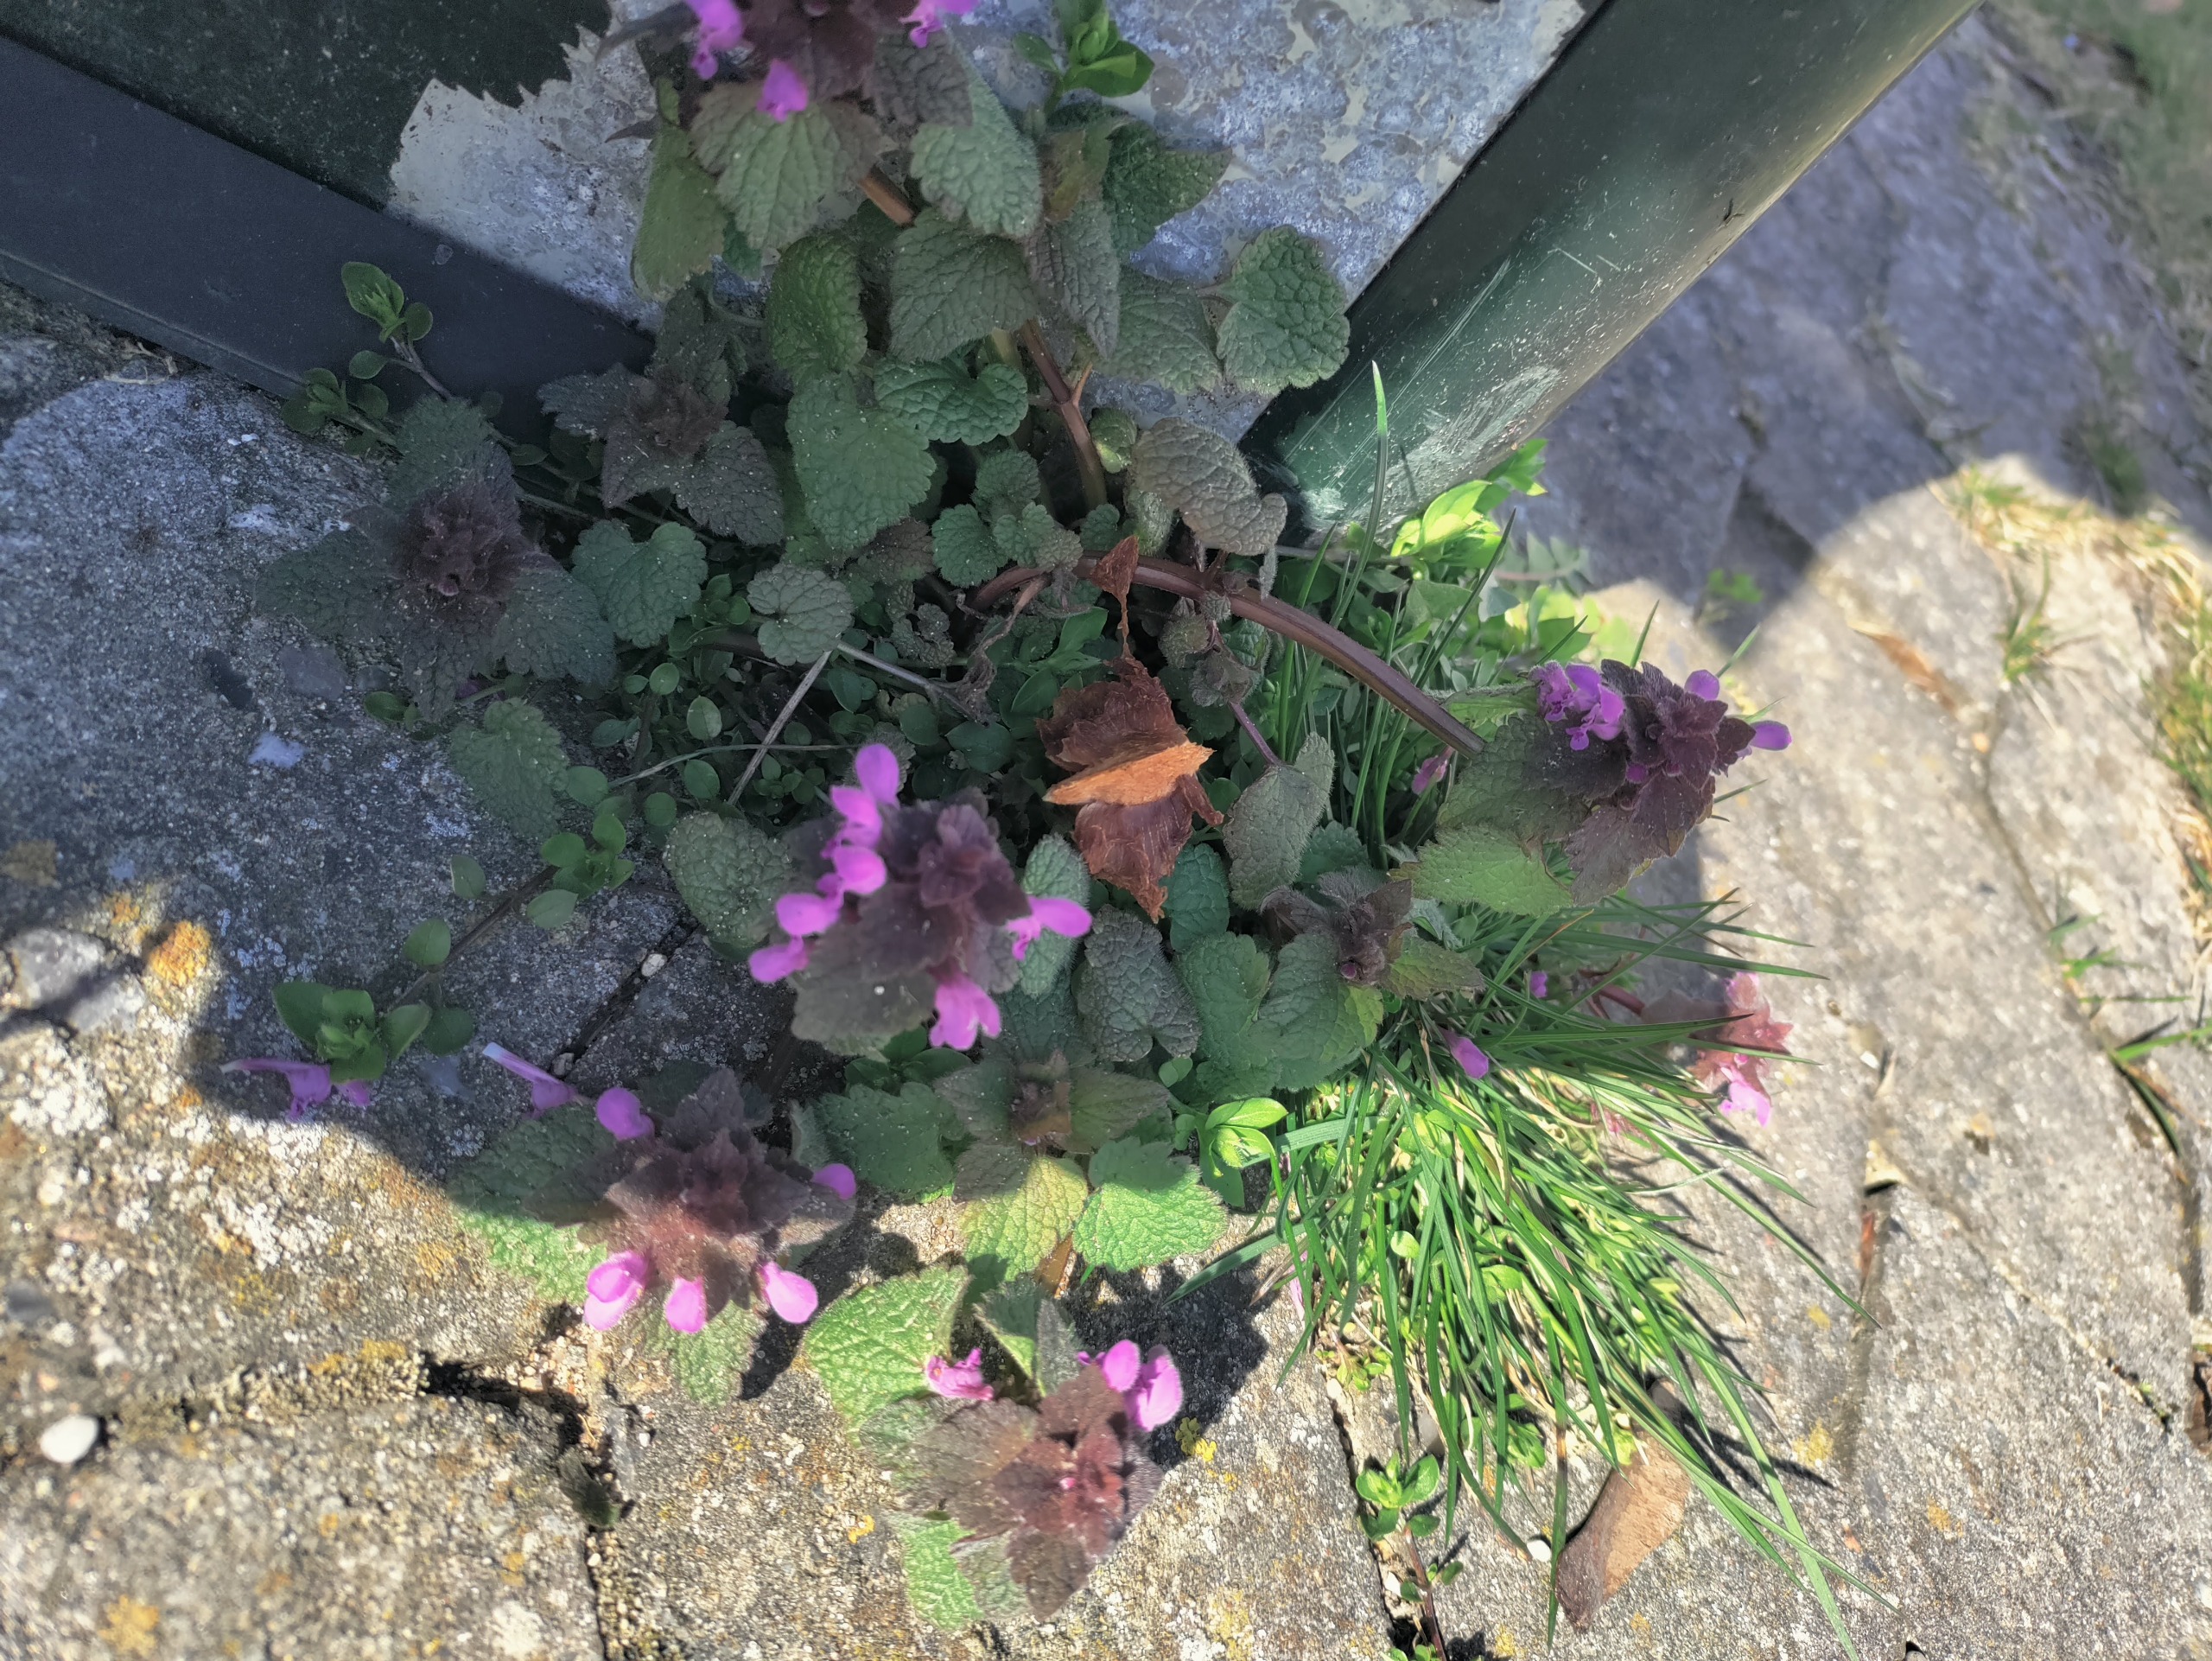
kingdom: Plantae
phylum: Tracheophyta
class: Magnoliopsida
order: Lamiales
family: Lamiaceae
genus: Lamium
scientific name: Lamium purpureum
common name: Rød tvetand
